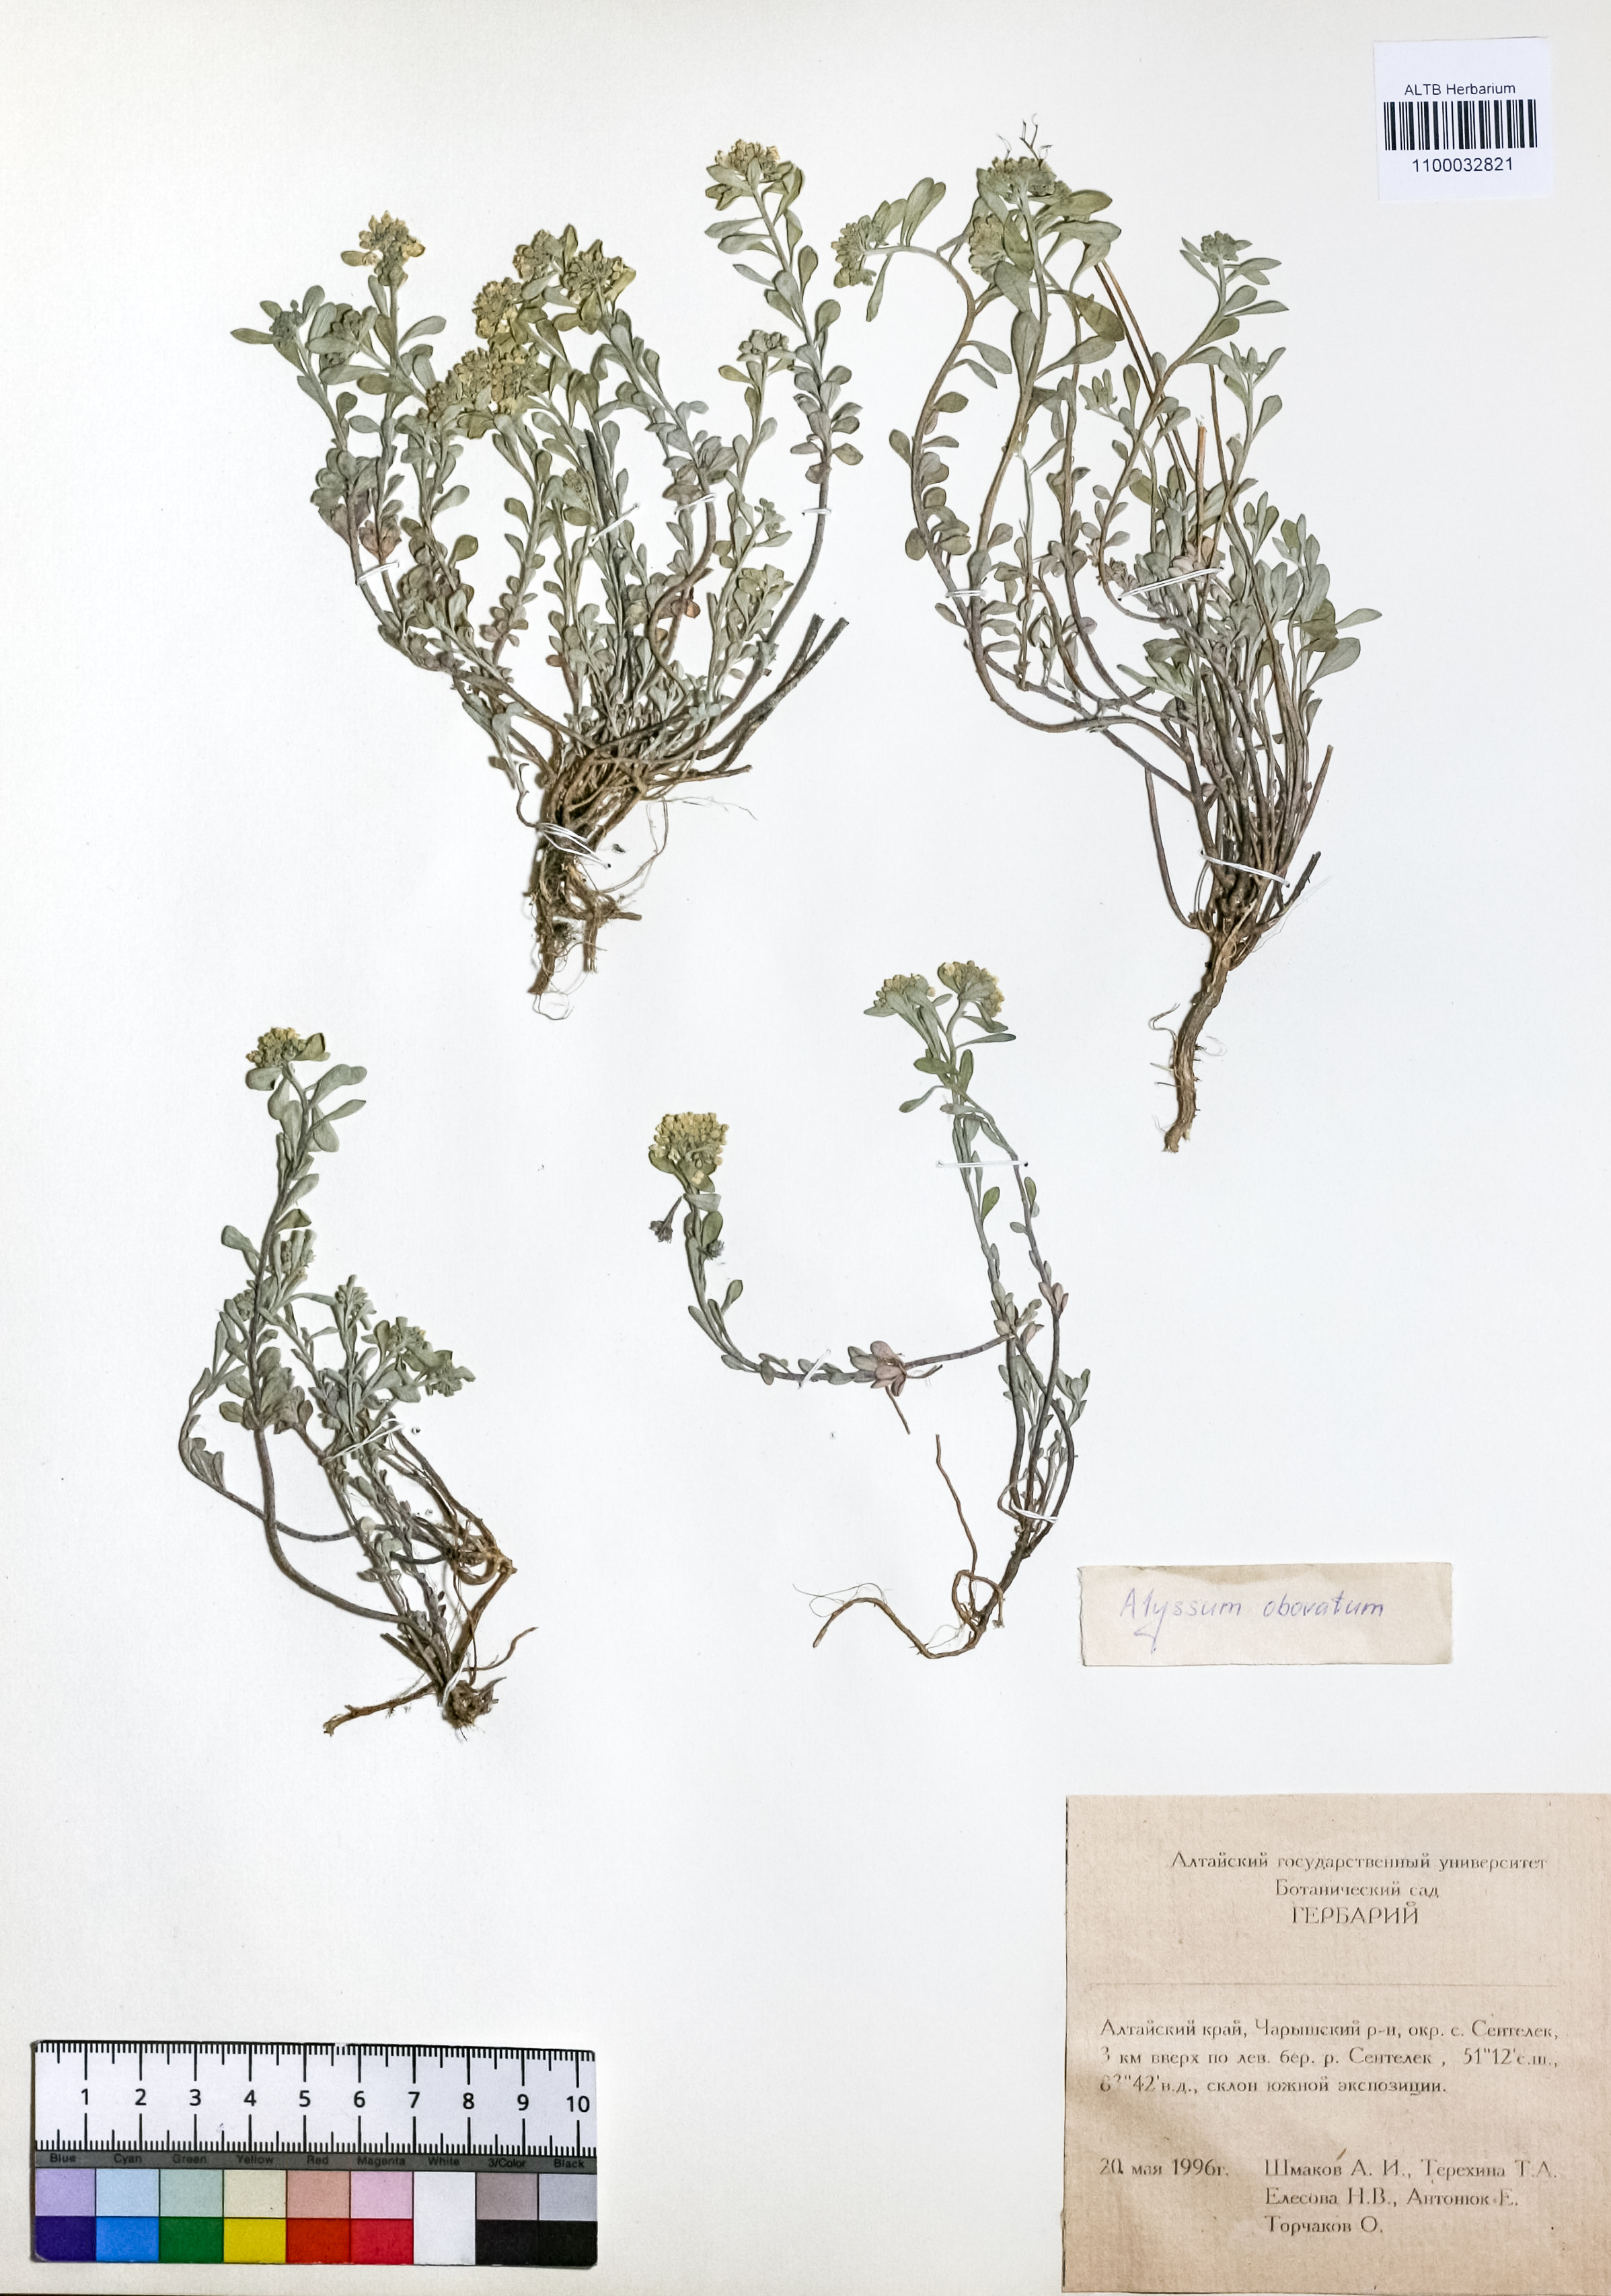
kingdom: Plantae
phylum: Tracheophyta
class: Magnoliopsida
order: Brassicales
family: Brassicaceae
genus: Odontarrhena
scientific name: Odontarrhena obovata
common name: American alyssum
